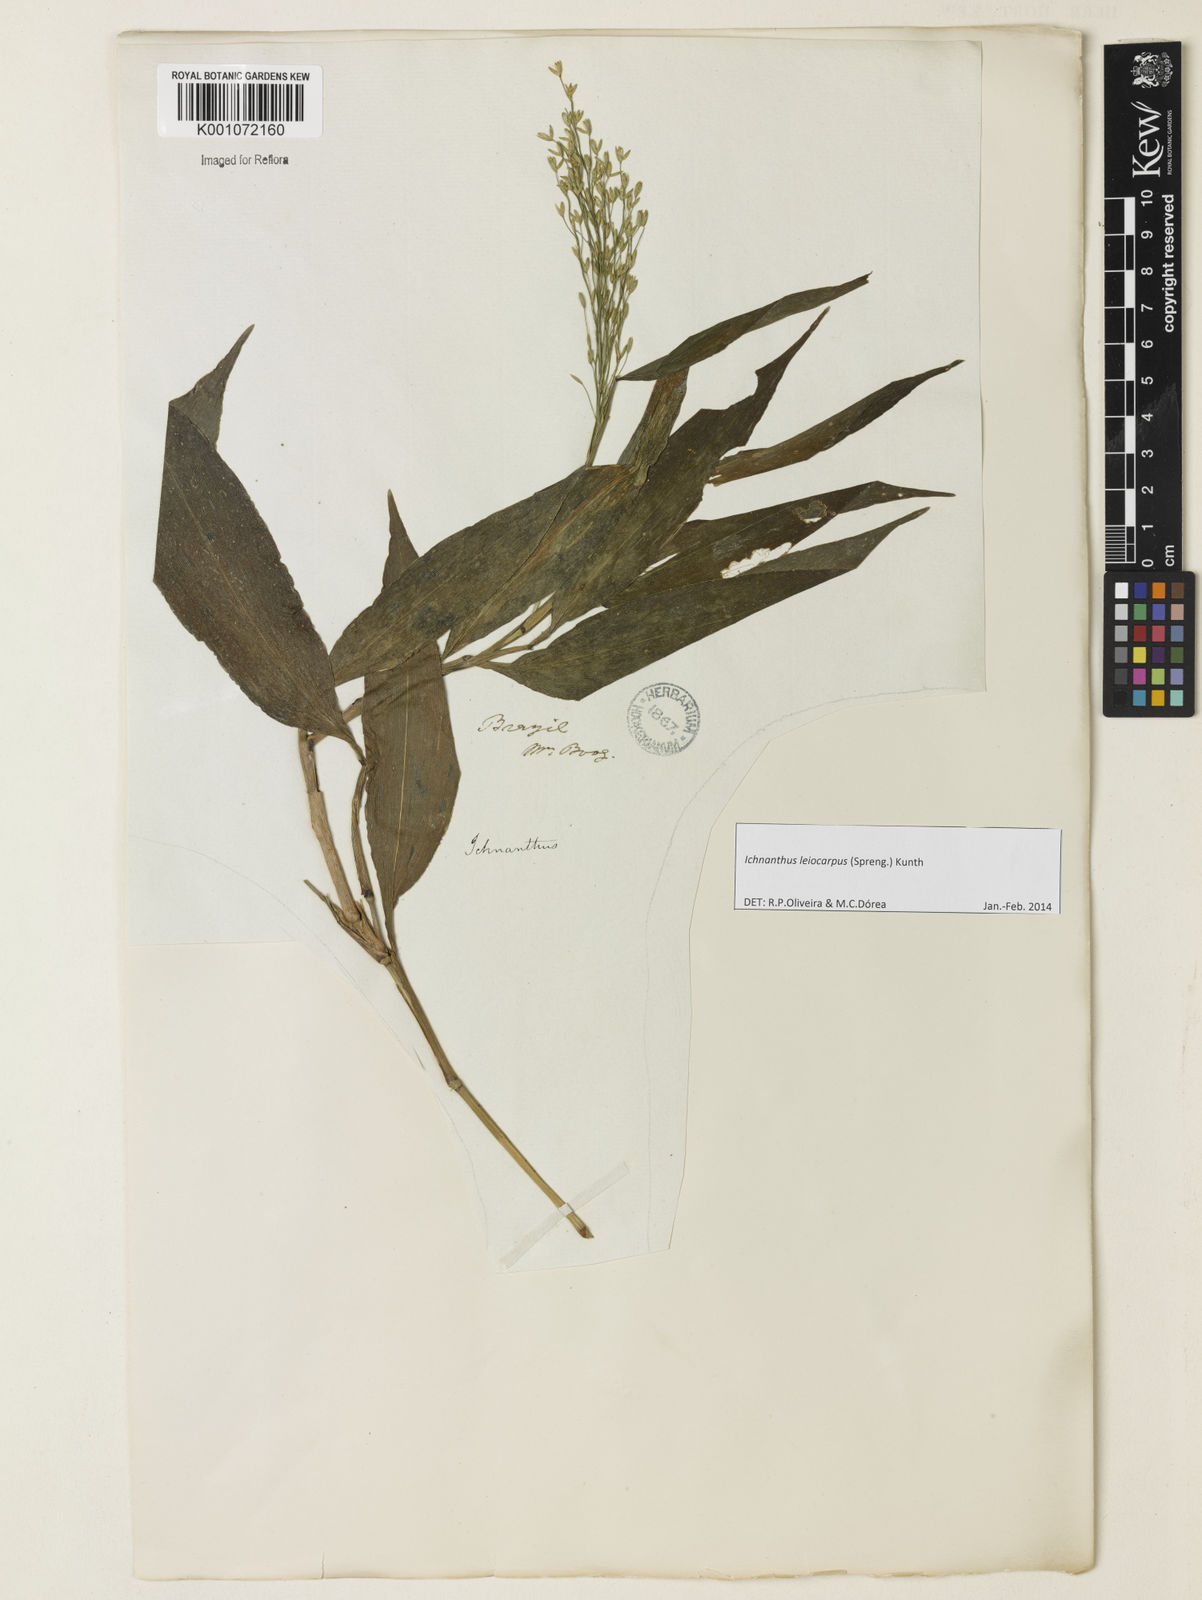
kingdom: Plantae
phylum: Tracheophyta
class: Liliopsida
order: Poales
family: Poaceae
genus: Ichnanthus
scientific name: Ichnanthus leiocarpus
